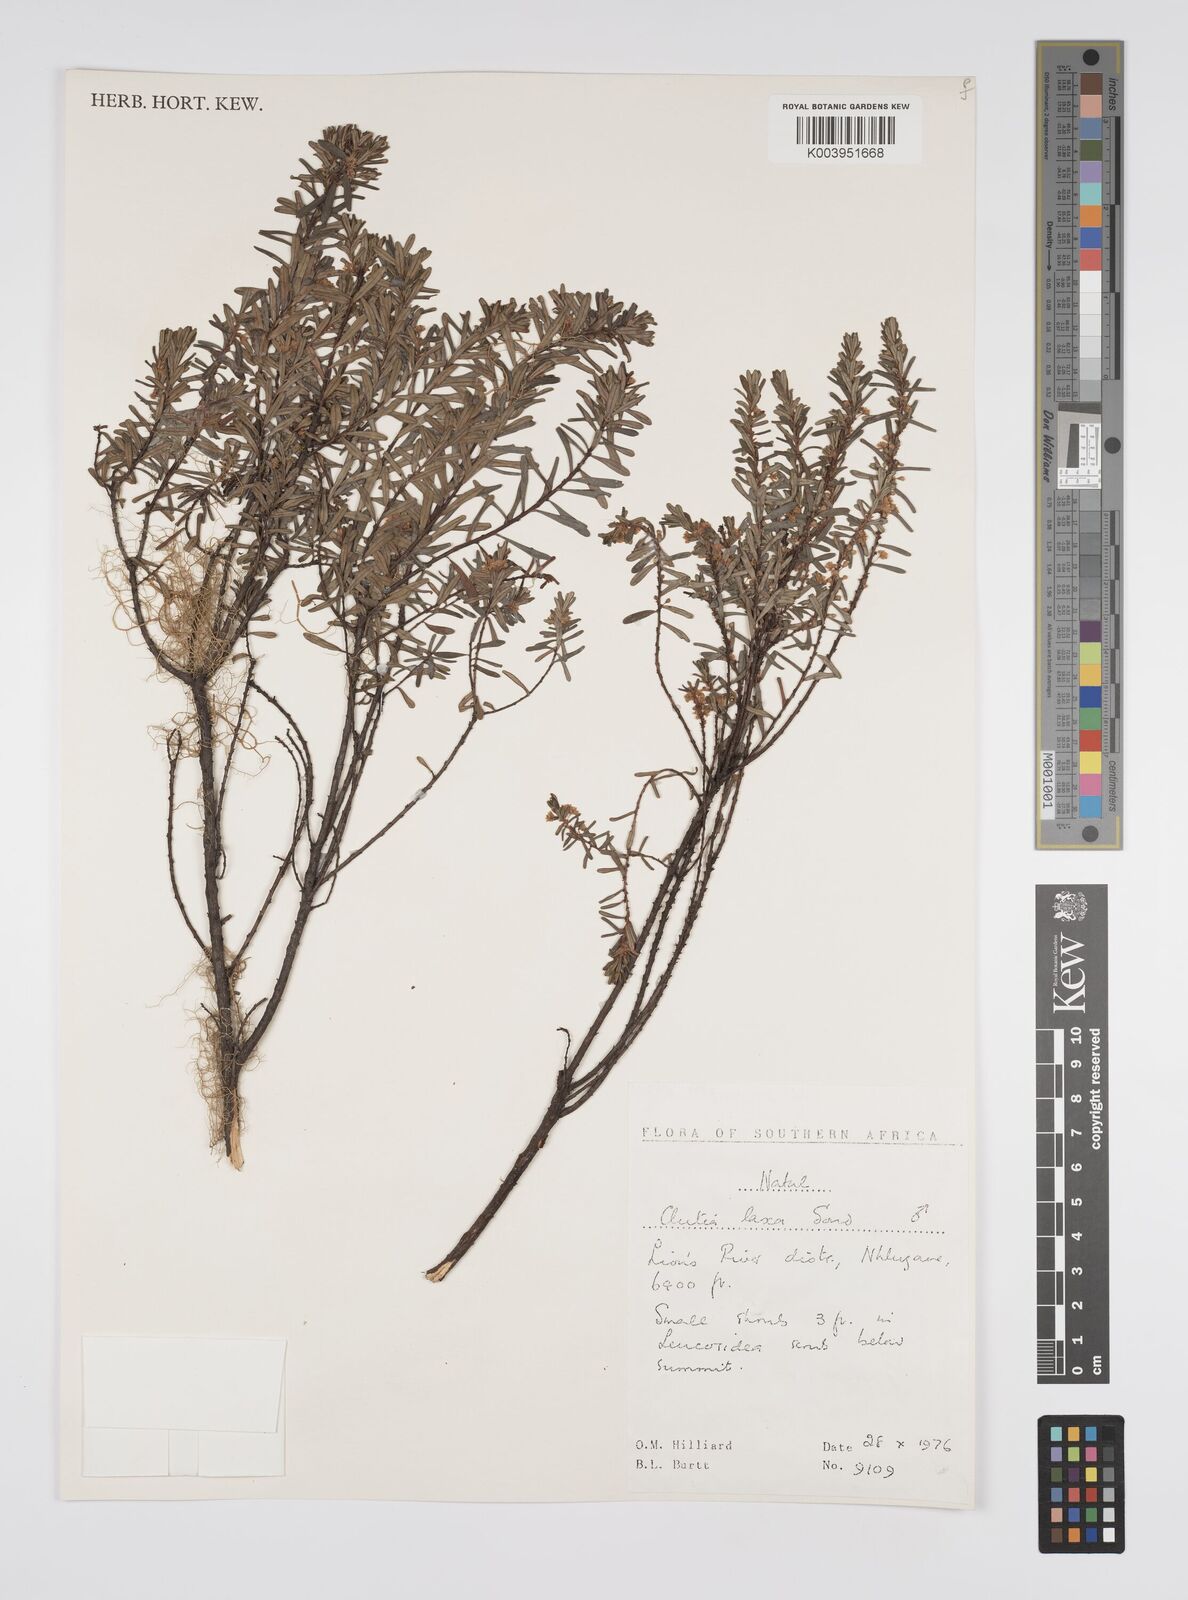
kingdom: Plantae
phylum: Tracheophyta
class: Magnoliopsida
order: Malpighiales
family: Peraceae
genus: Clutia
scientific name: Clutia laxa
